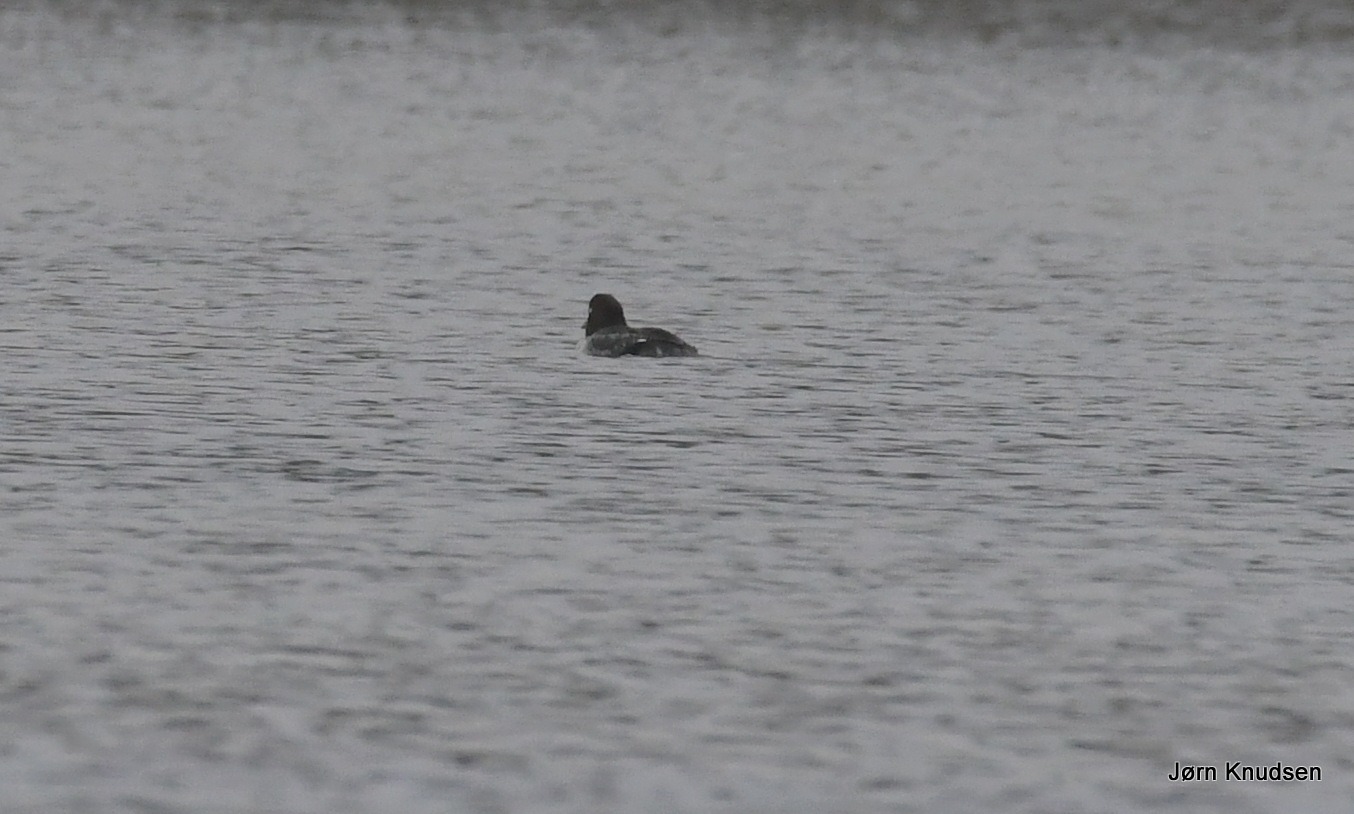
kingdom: Animalia
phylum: Chordata
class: Aves
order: Anseriformes
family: Anatidae
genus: Bucephala
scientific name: Bucephala clangula
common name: Hvinand
